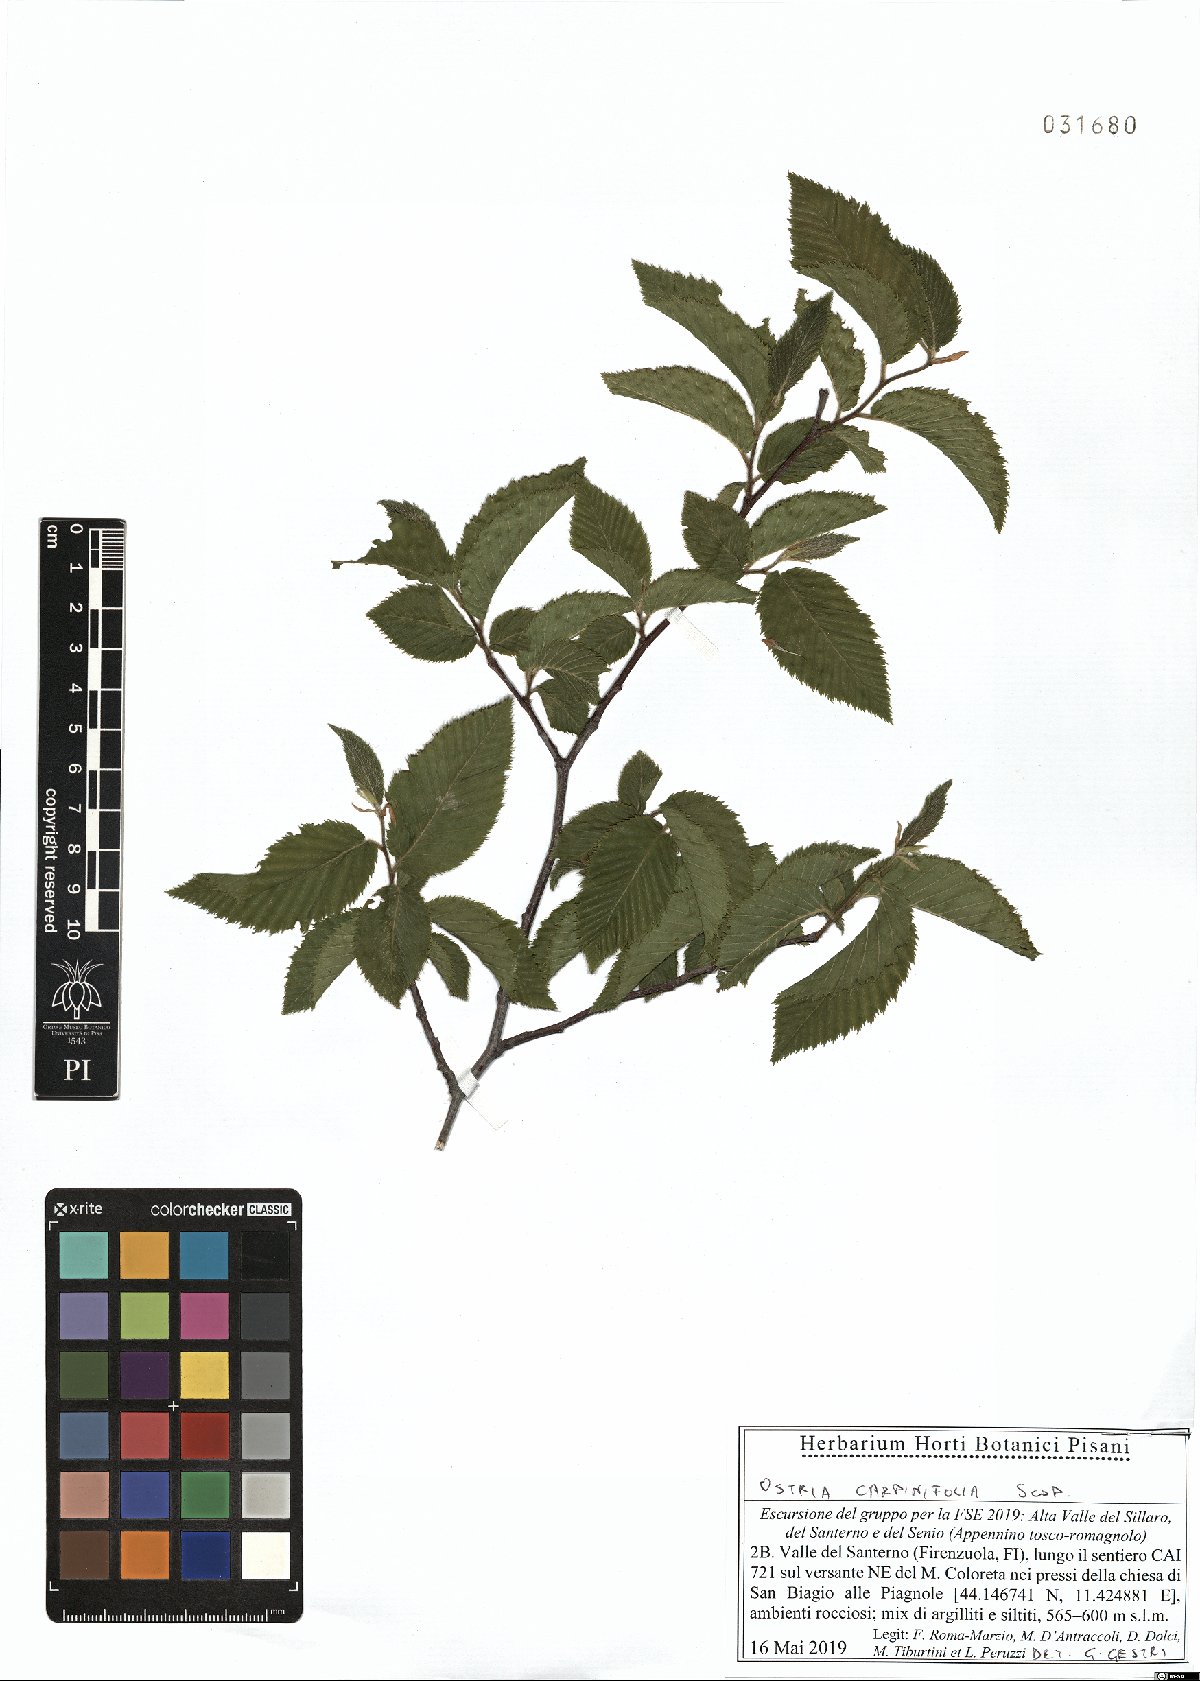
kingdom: Plantae
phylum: Tracheophyta
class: Magnoliopsida
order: Fagales
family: Betulaceae
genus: Ostrya
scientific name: Ostrya carpinifolia
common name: European hop-hornbeam
